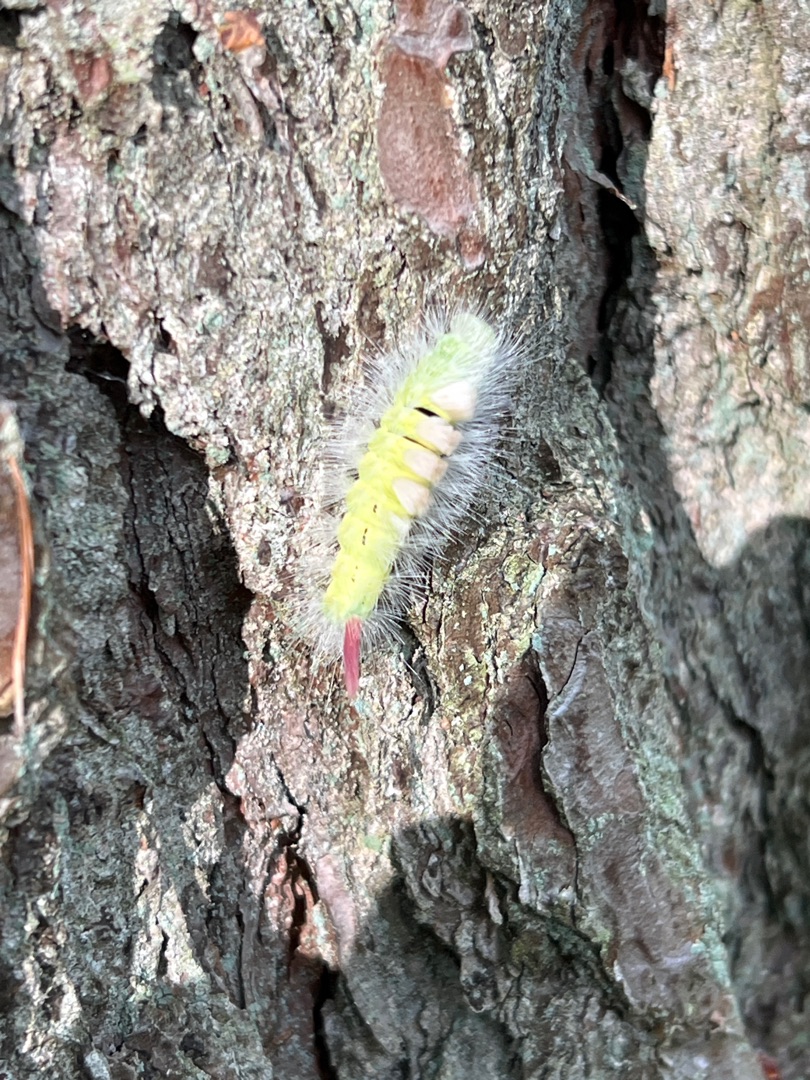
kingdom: Animalia
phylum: Arthropoda
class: Insecta
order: Lepidoptera
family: Erebidae
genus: Calliteara
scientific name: Calliteara pudibunda
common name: Bøgenonne
